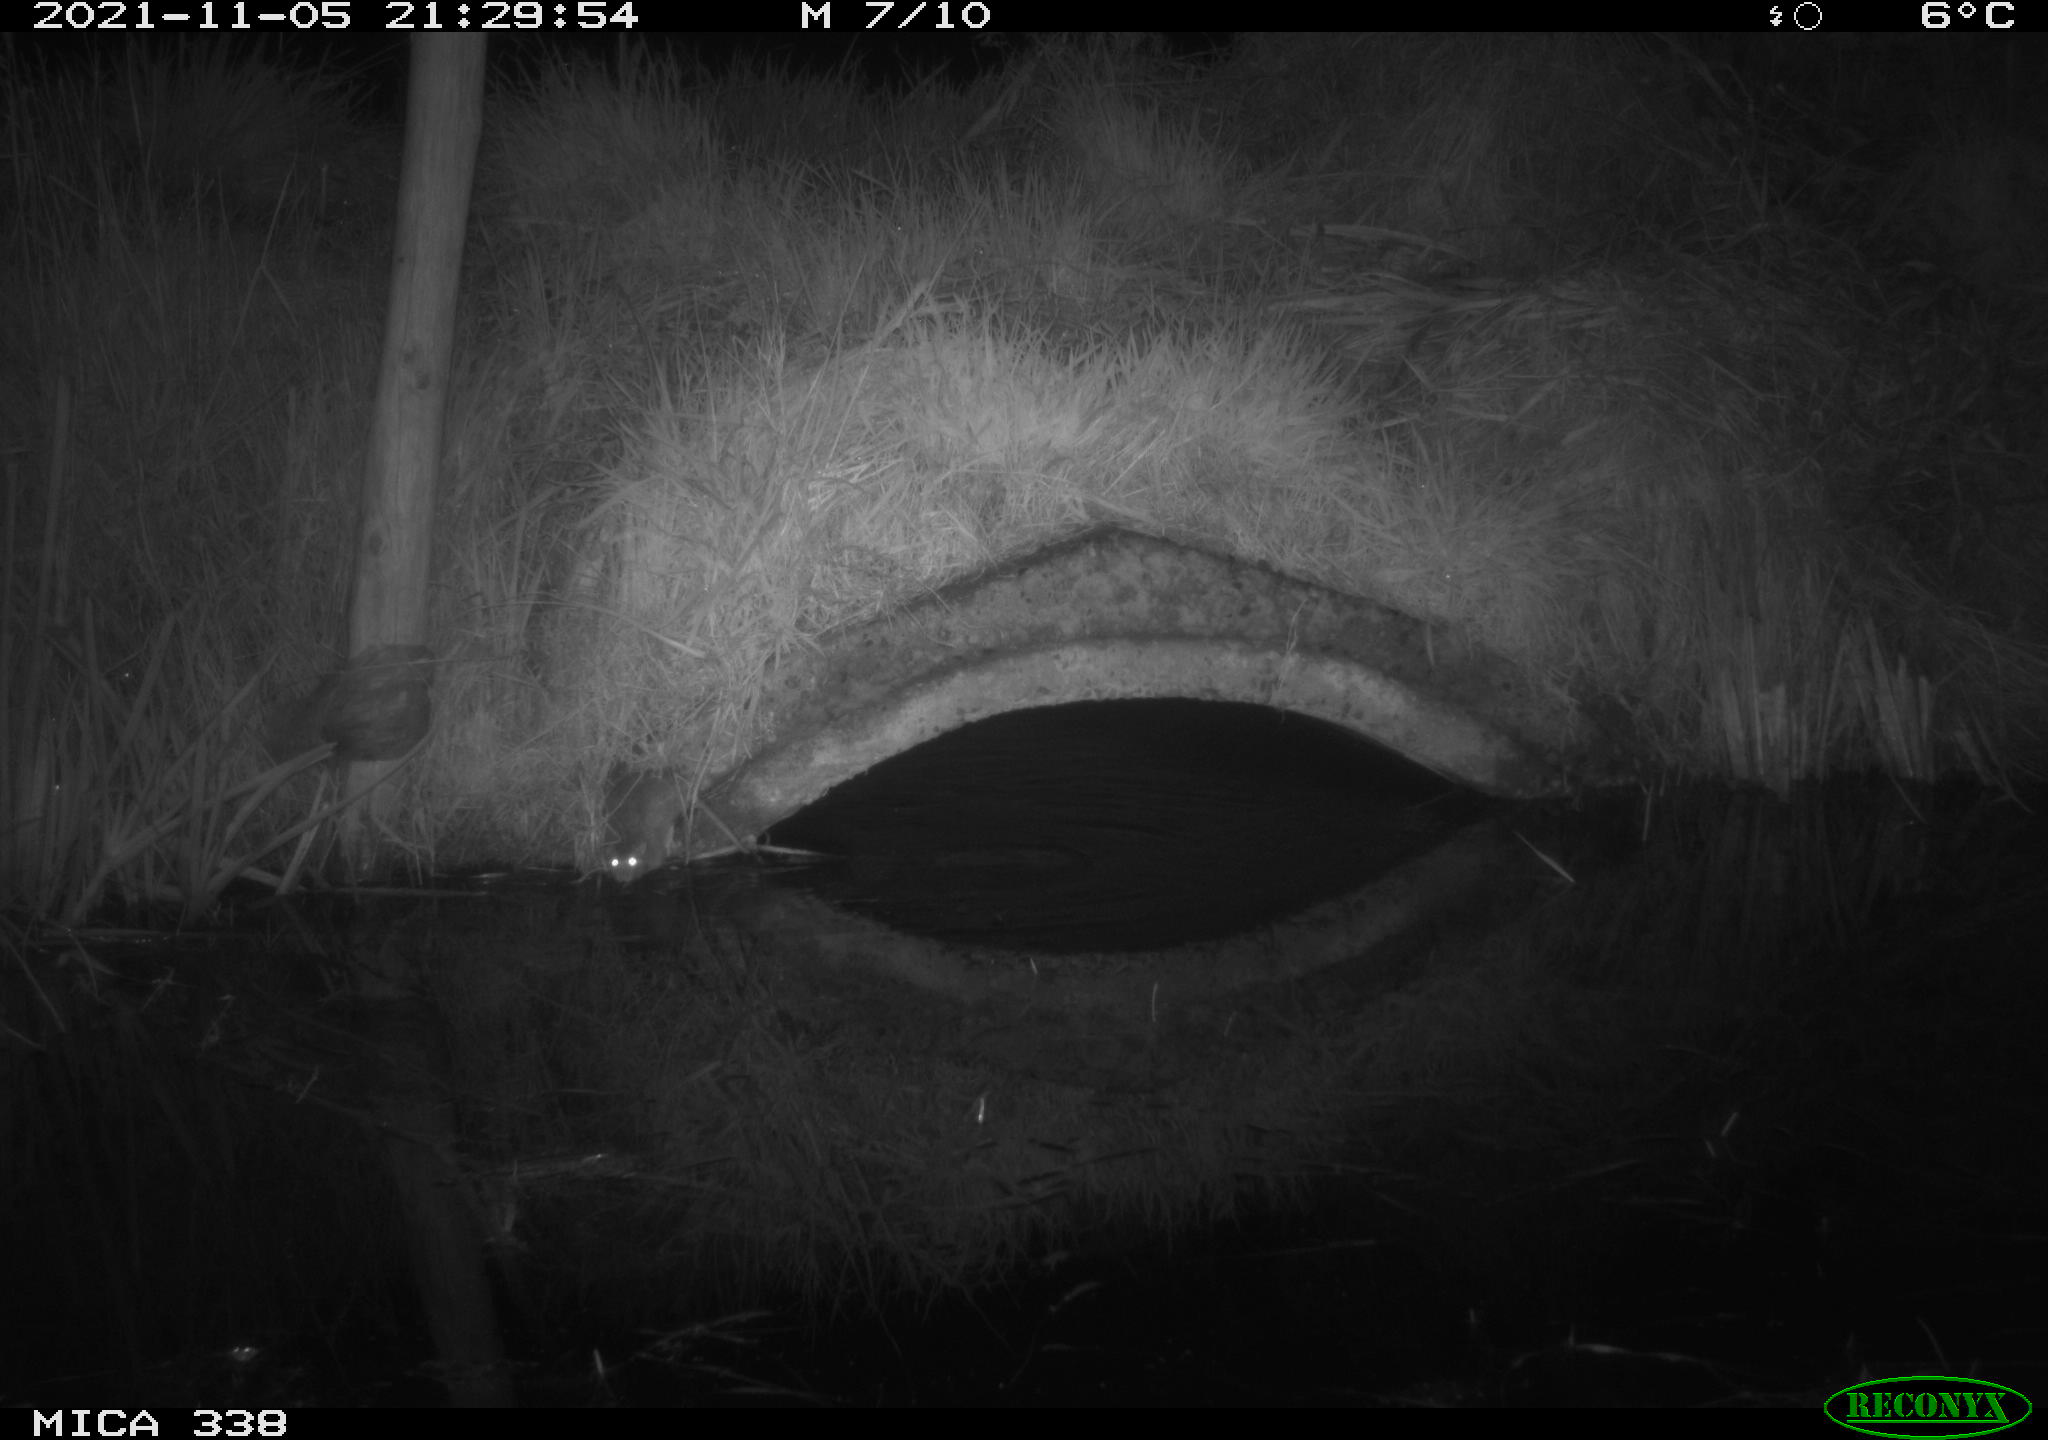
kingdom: Animalia
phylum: Chordata
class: Mammalia
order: Rodentia
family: Muridae
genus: Rattus
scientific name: Rattus norvegicus
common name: Brown rat
